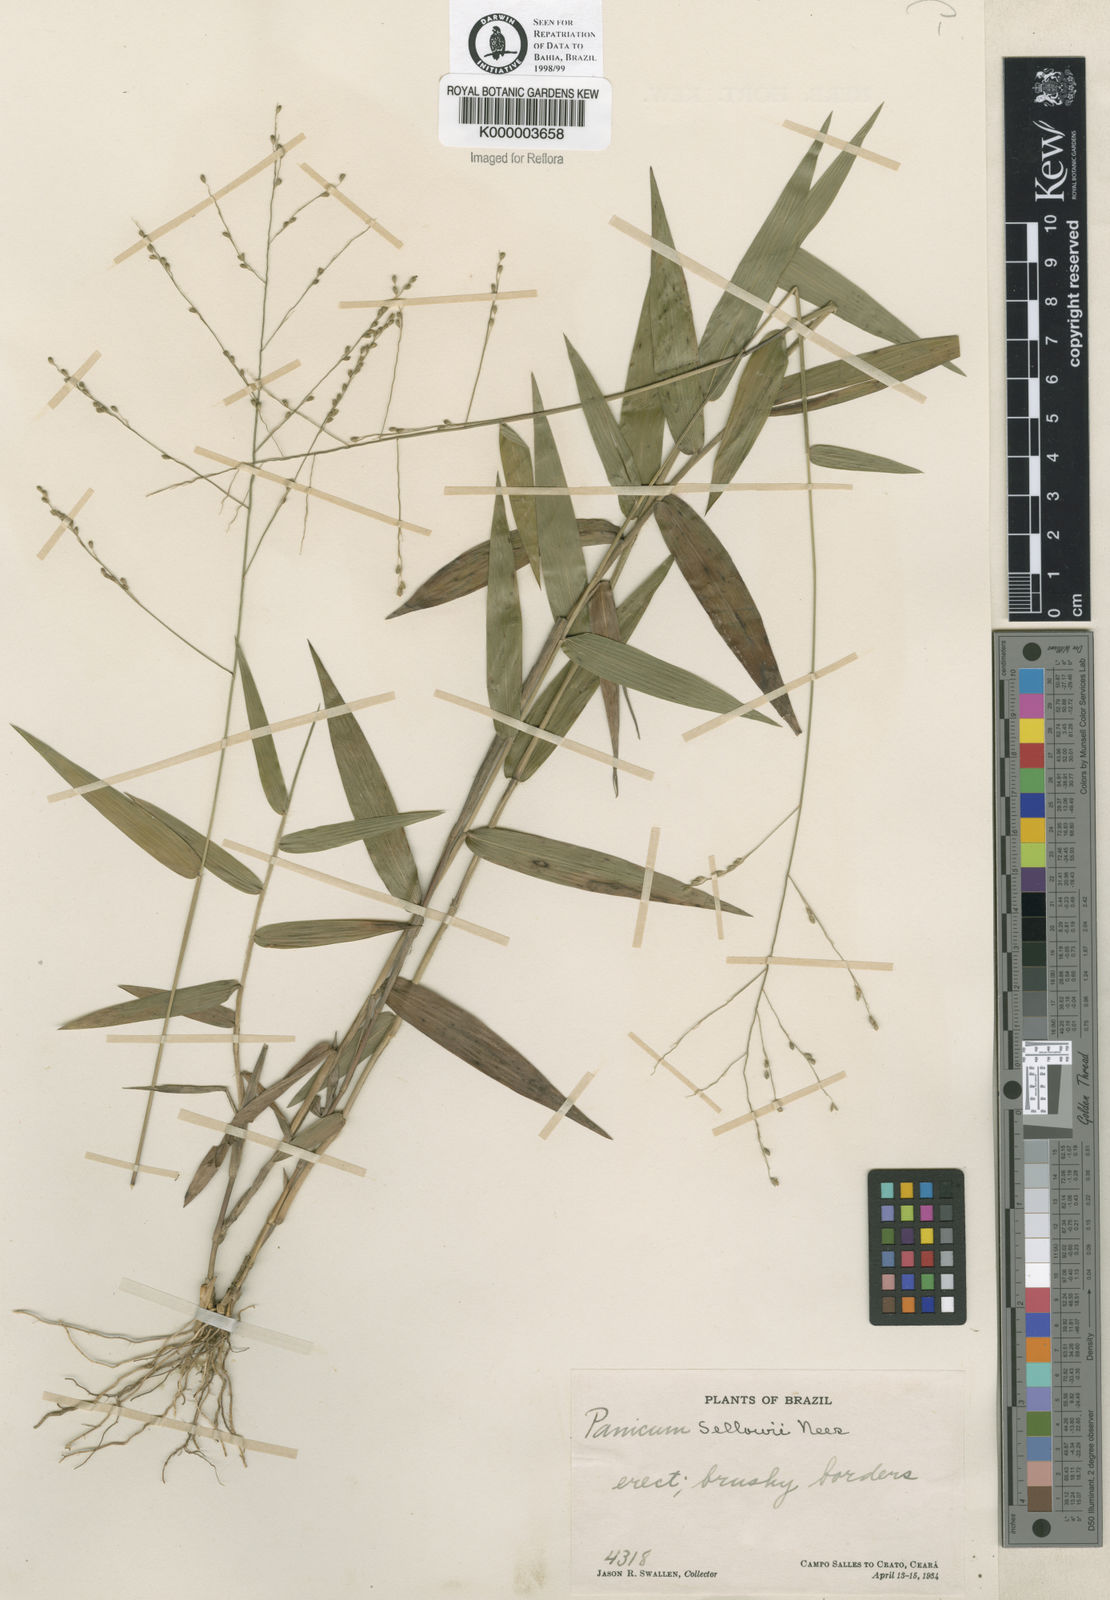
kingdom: Plantae
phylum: Tracheophyta
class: Liliopsida
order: Poales
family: Poaceae
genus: Panicum
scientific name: Panicum sellowii
